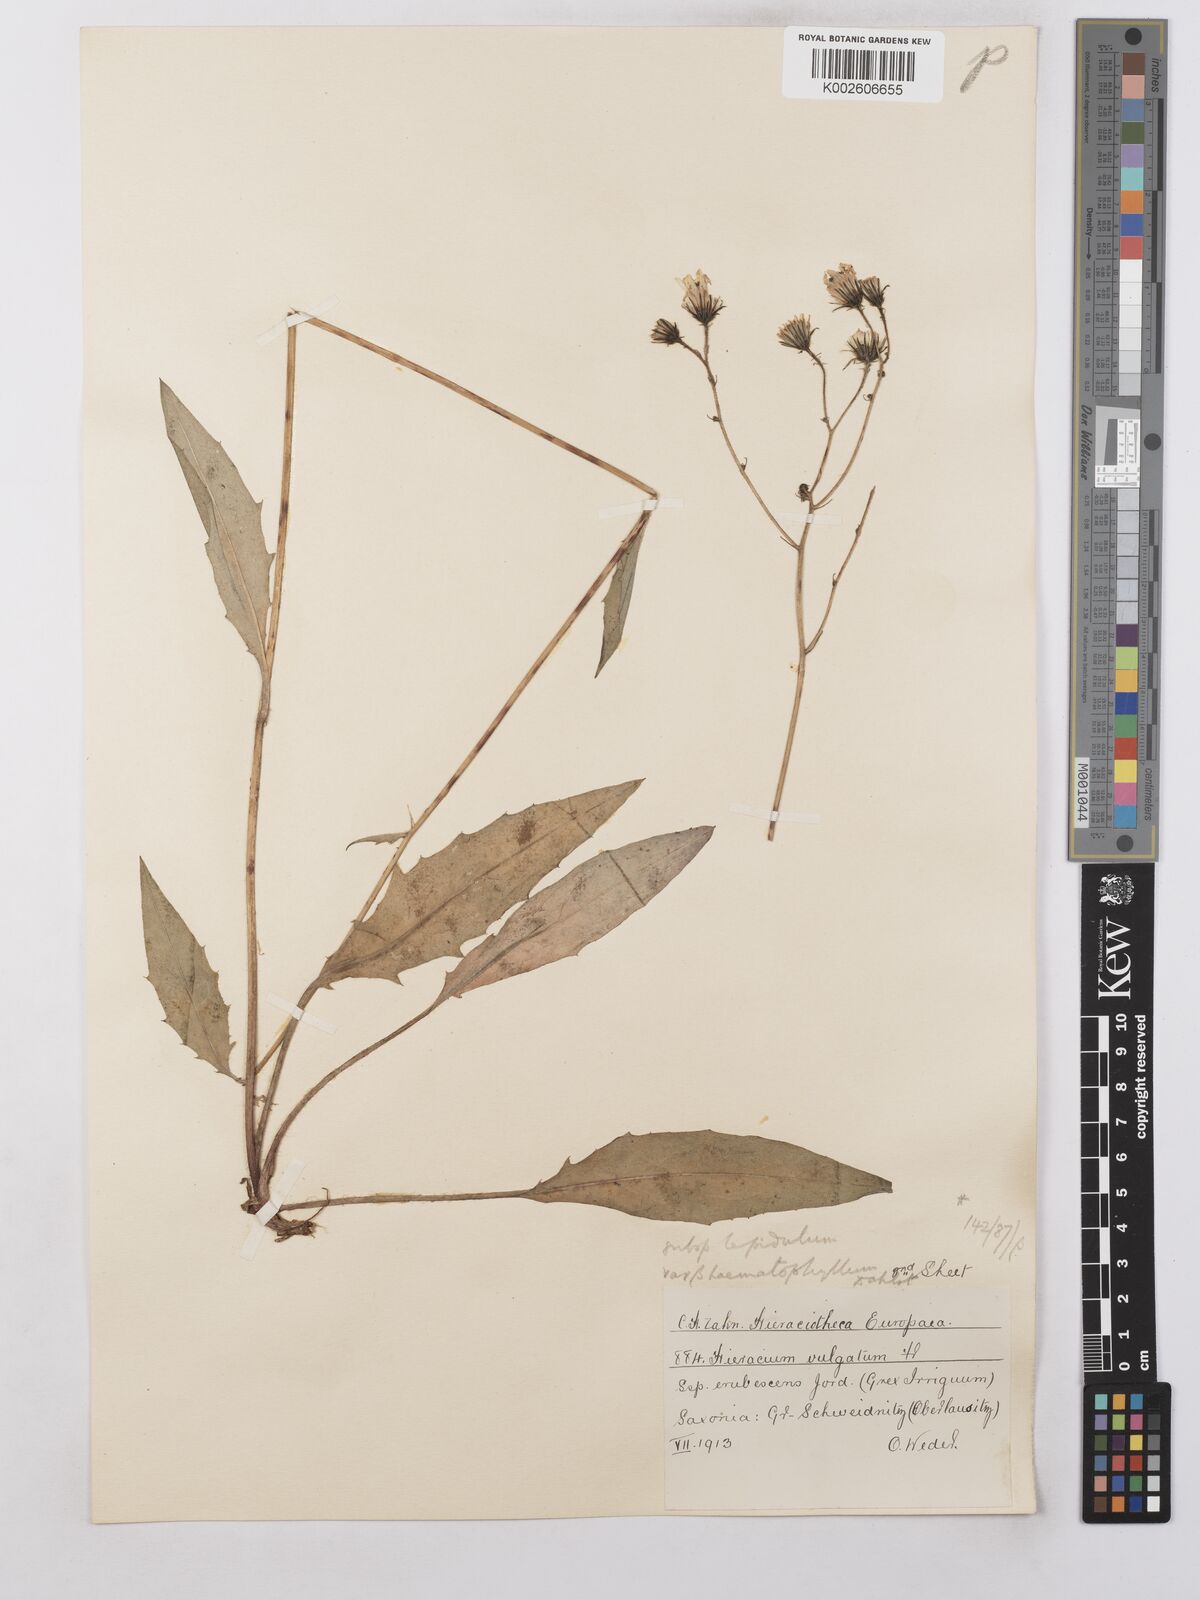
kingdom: Plantae
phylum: Tracheophyta
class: Magnoliopsida
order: Asterales
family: Asteraceae
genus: Hieracium
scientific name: Hieracium lachenalii
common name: Common hawkweed
